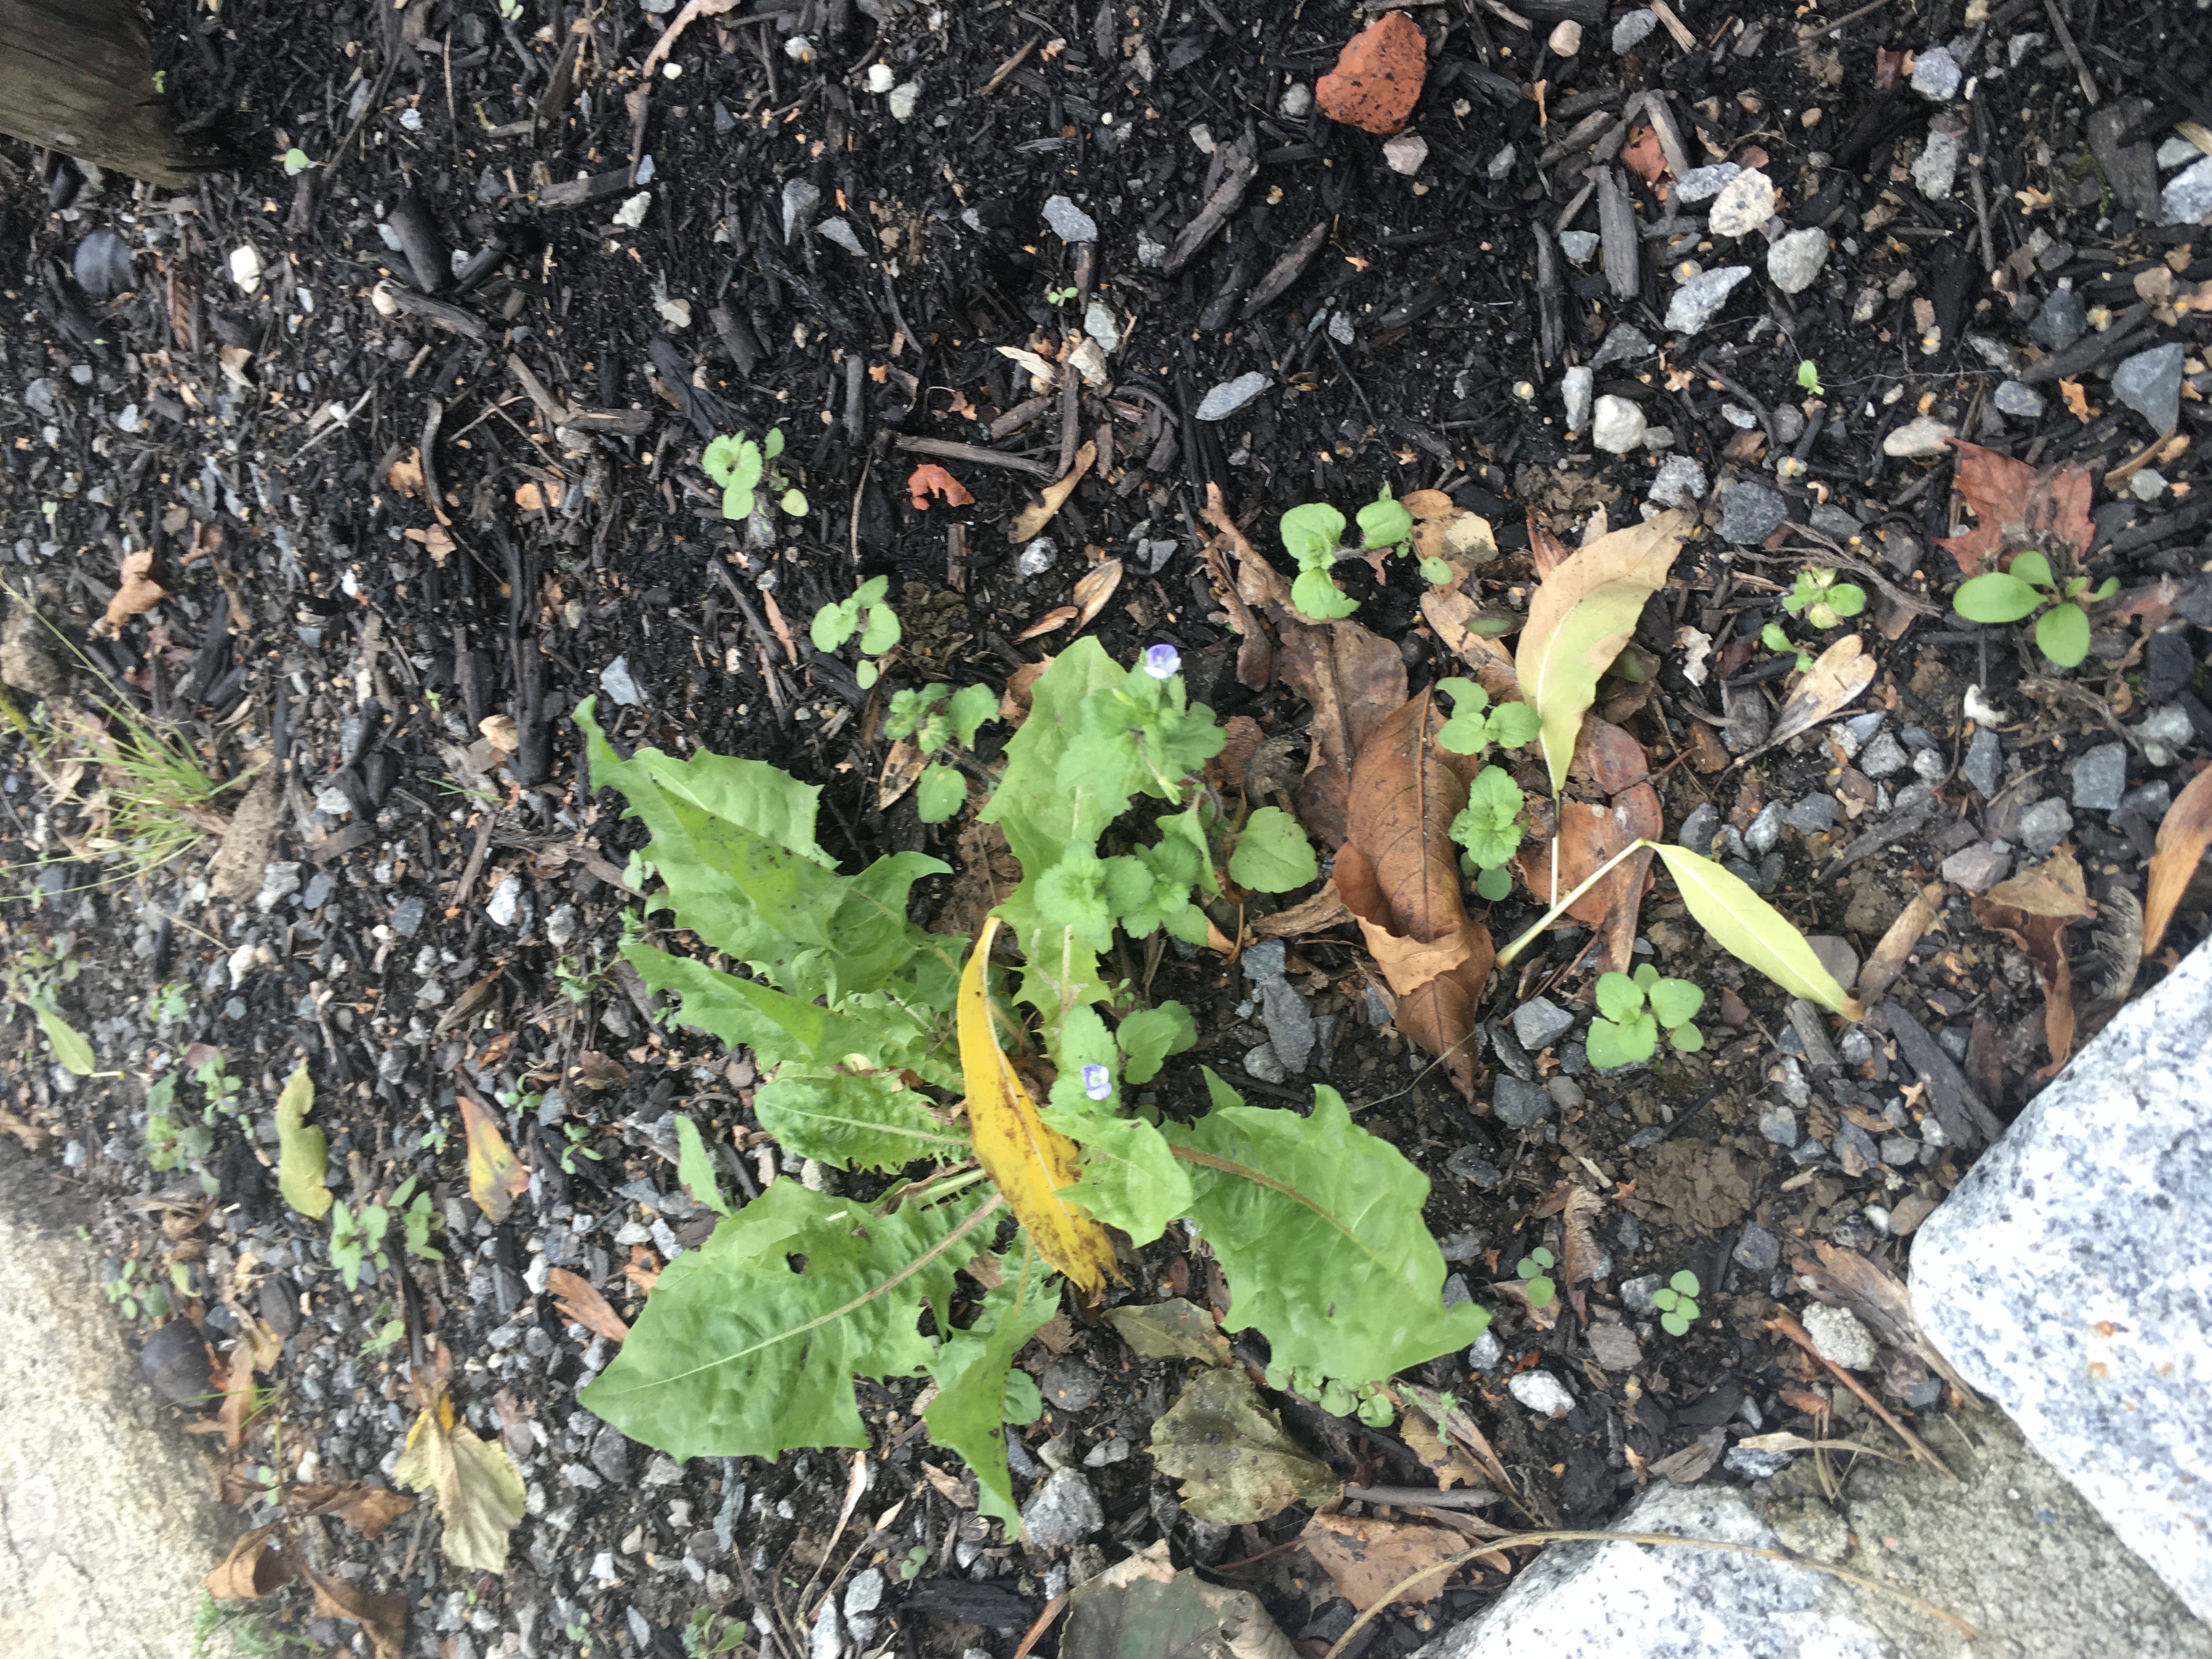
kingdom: Plantae
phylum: Tracheophyta
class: Magnoliopsida
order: Lamiales
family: Plantaginaceae
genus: Veronica
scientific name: Veronica persica
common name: orientveronika
